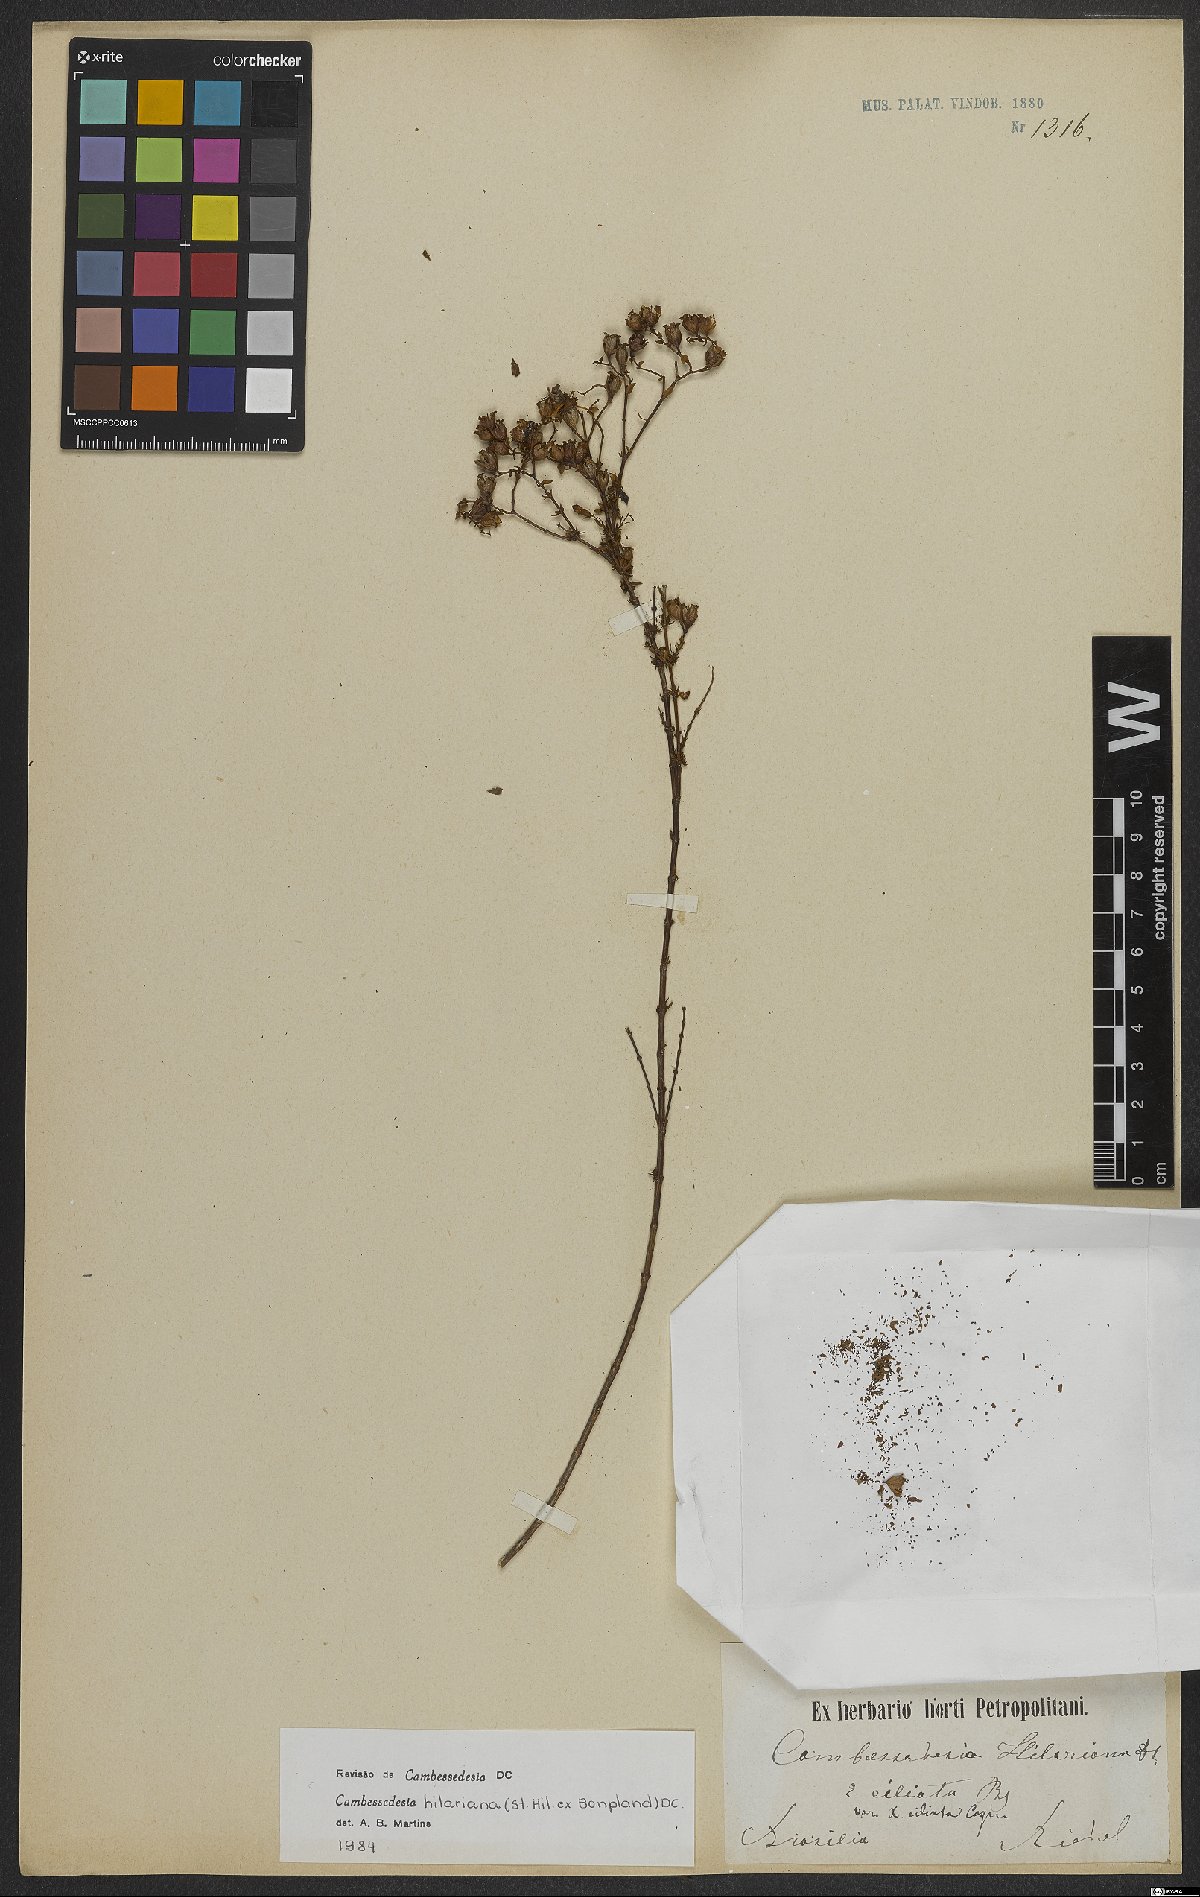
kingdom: Plantae
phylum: Tracheophyta
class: Magnoliopsida
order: Myrtales
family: Melastomataceae
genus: Cambessedesia
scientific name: Cambessedesia hilariana
